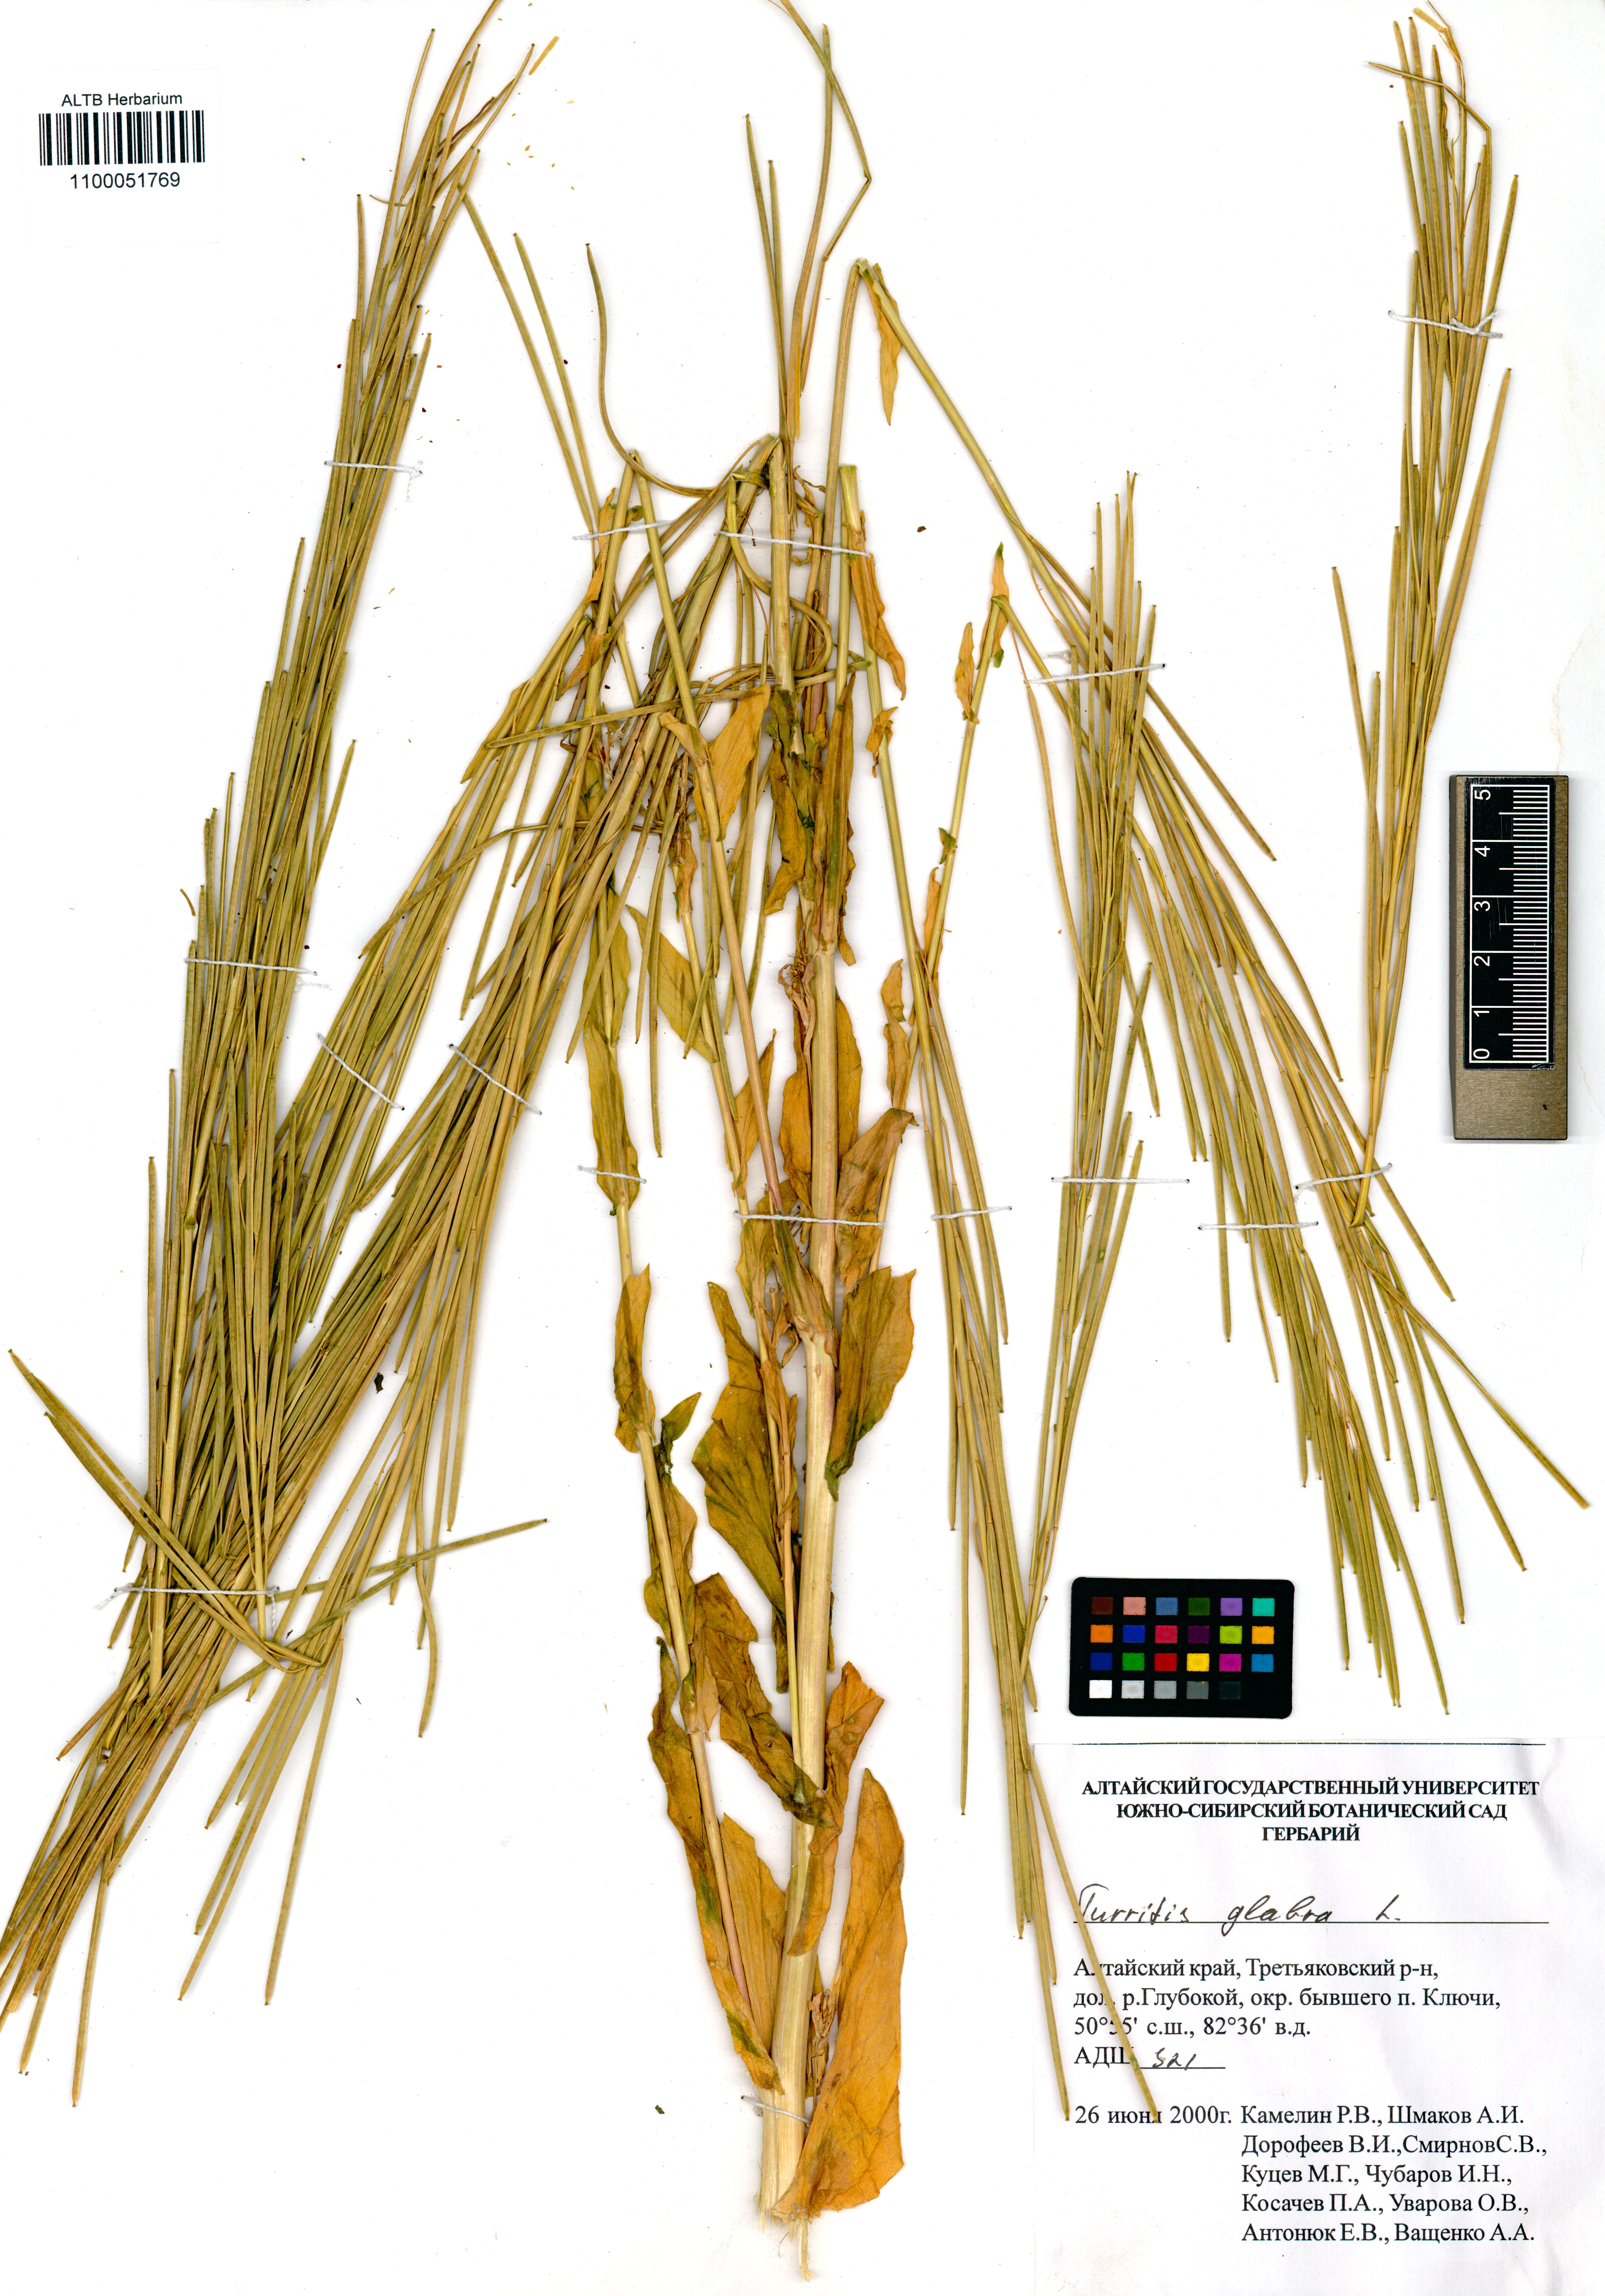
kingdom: Plantae
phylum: Tracheophyta
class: Magnoliopsida
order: Brassicales
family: Brassicaceae
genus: Turritis
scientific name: Turritis glabra
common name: Tower rockcress
